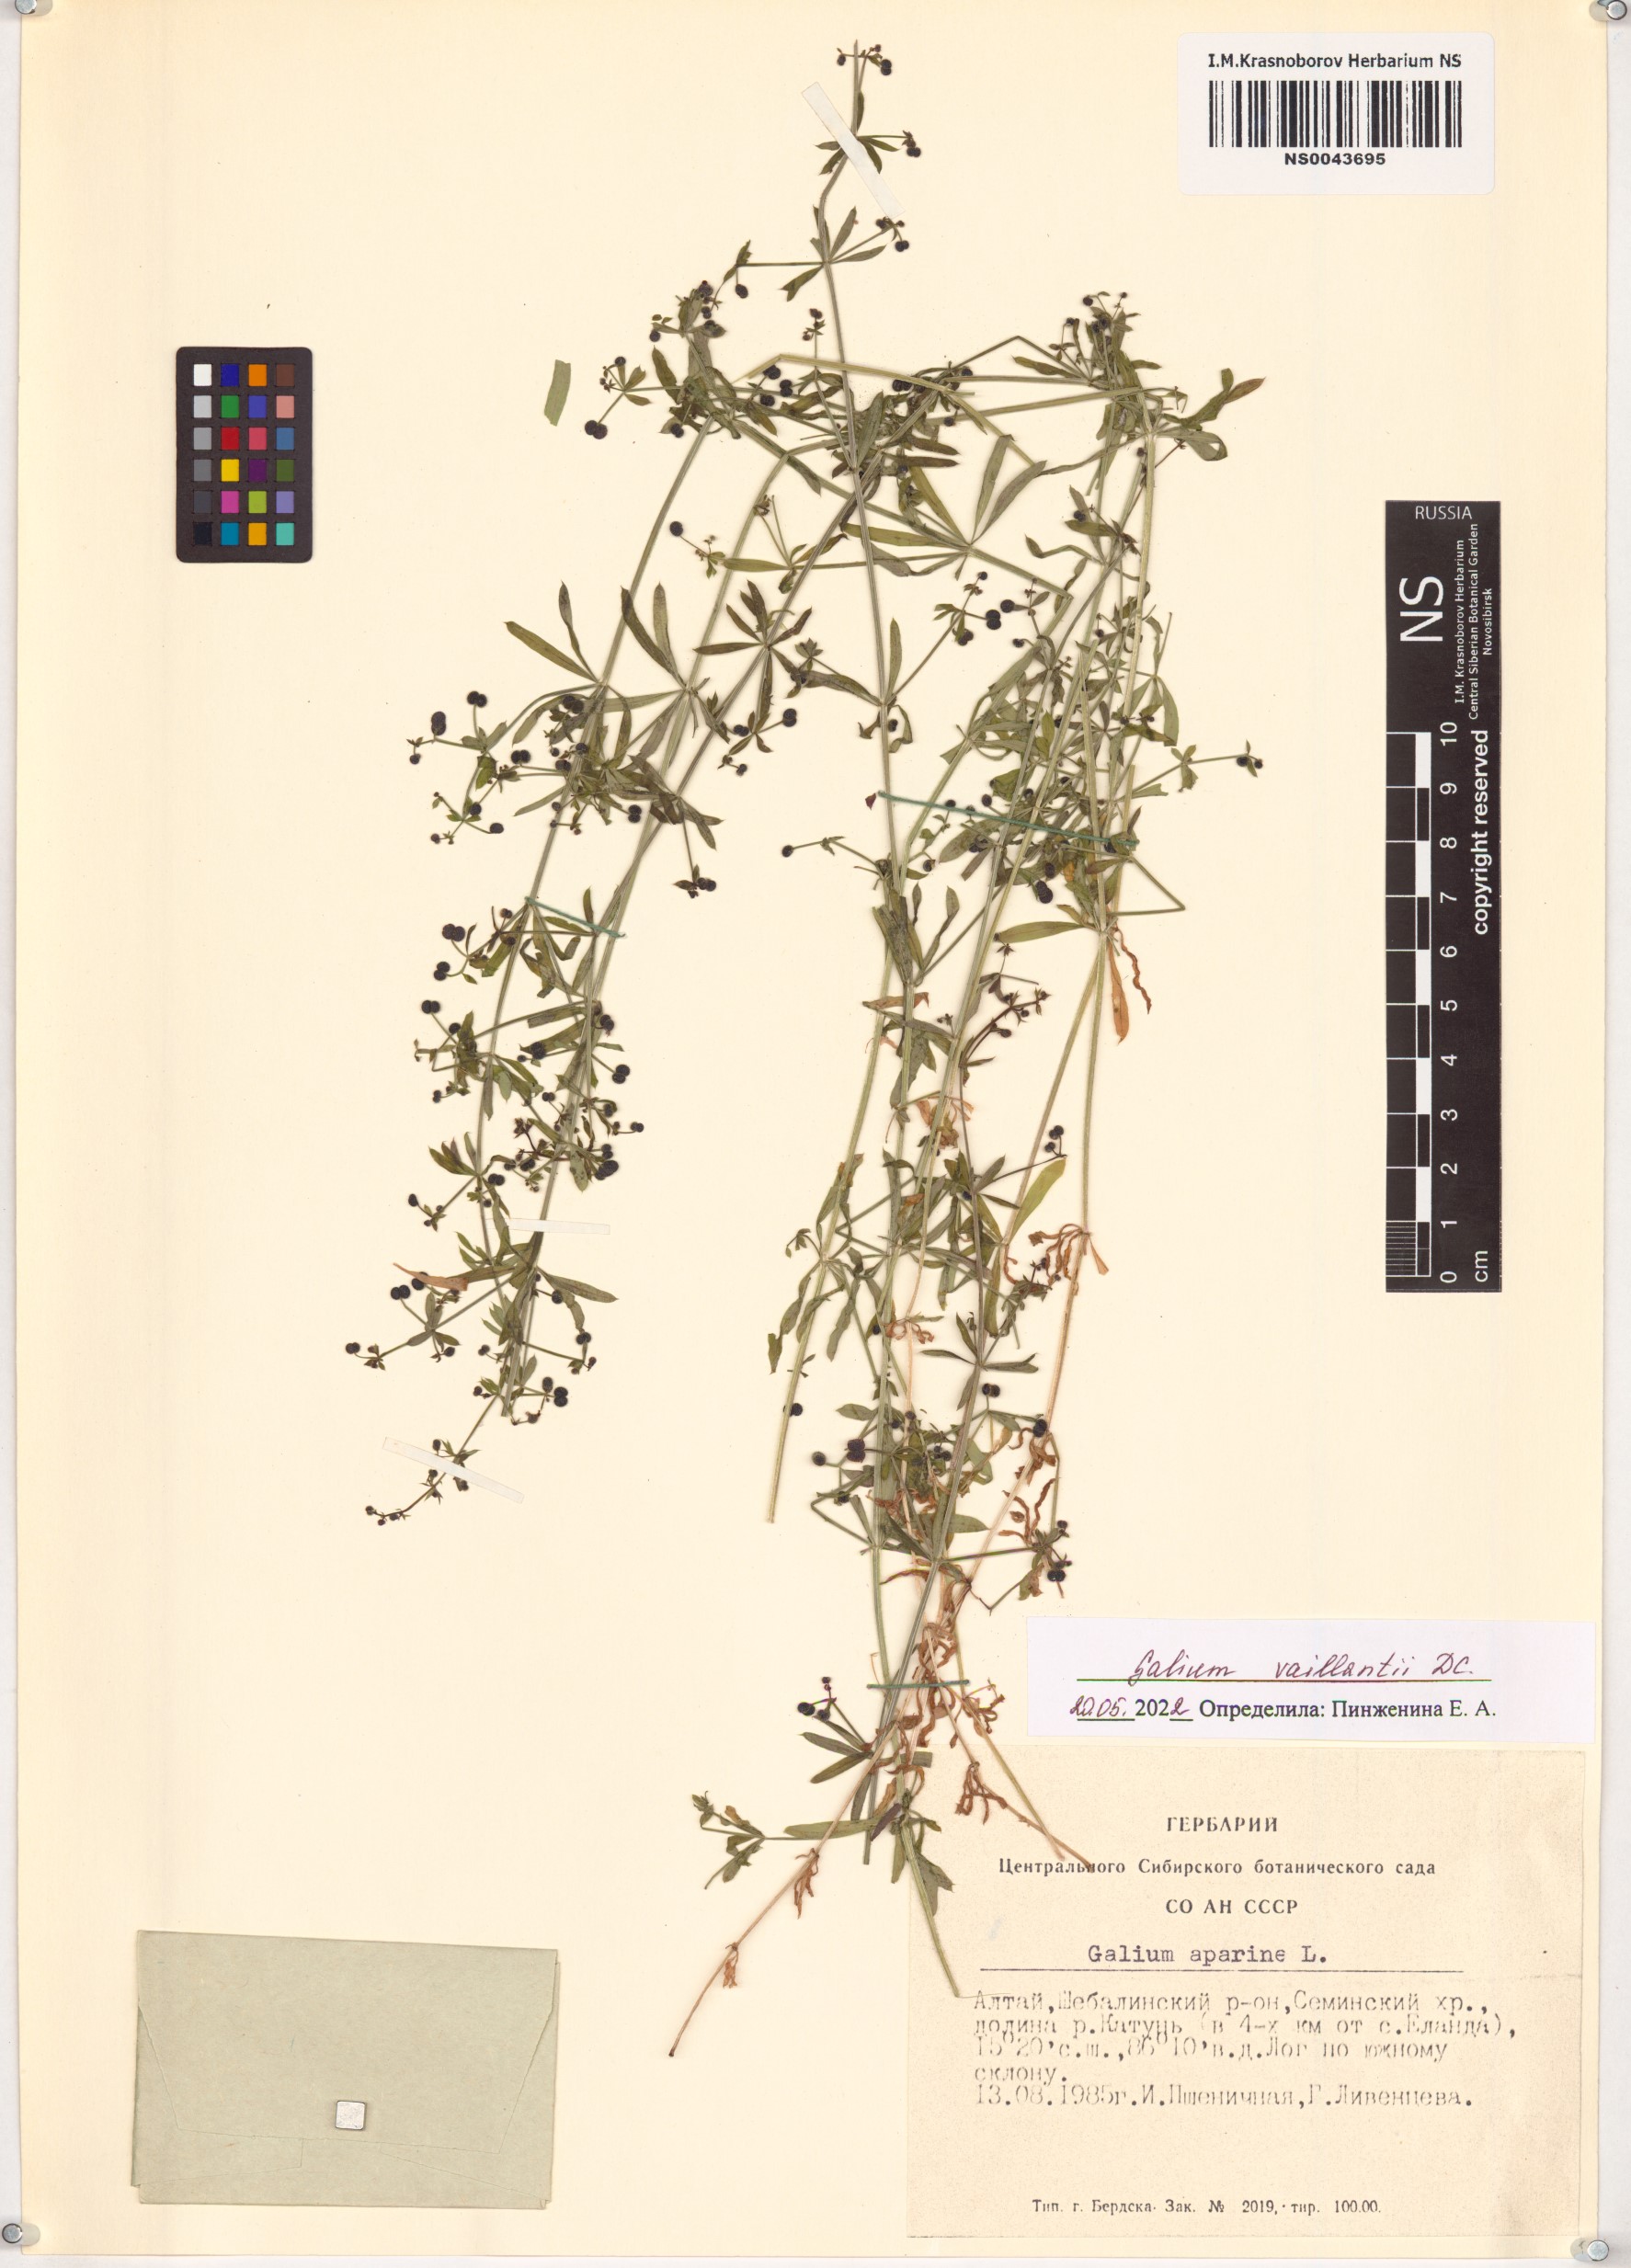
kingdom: Plantae
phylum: Tracheophyta
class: Magnoliopsida
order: Gentianales
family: Rubiaceae
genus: Galium
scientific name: Galium spurium
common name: False cleavers
